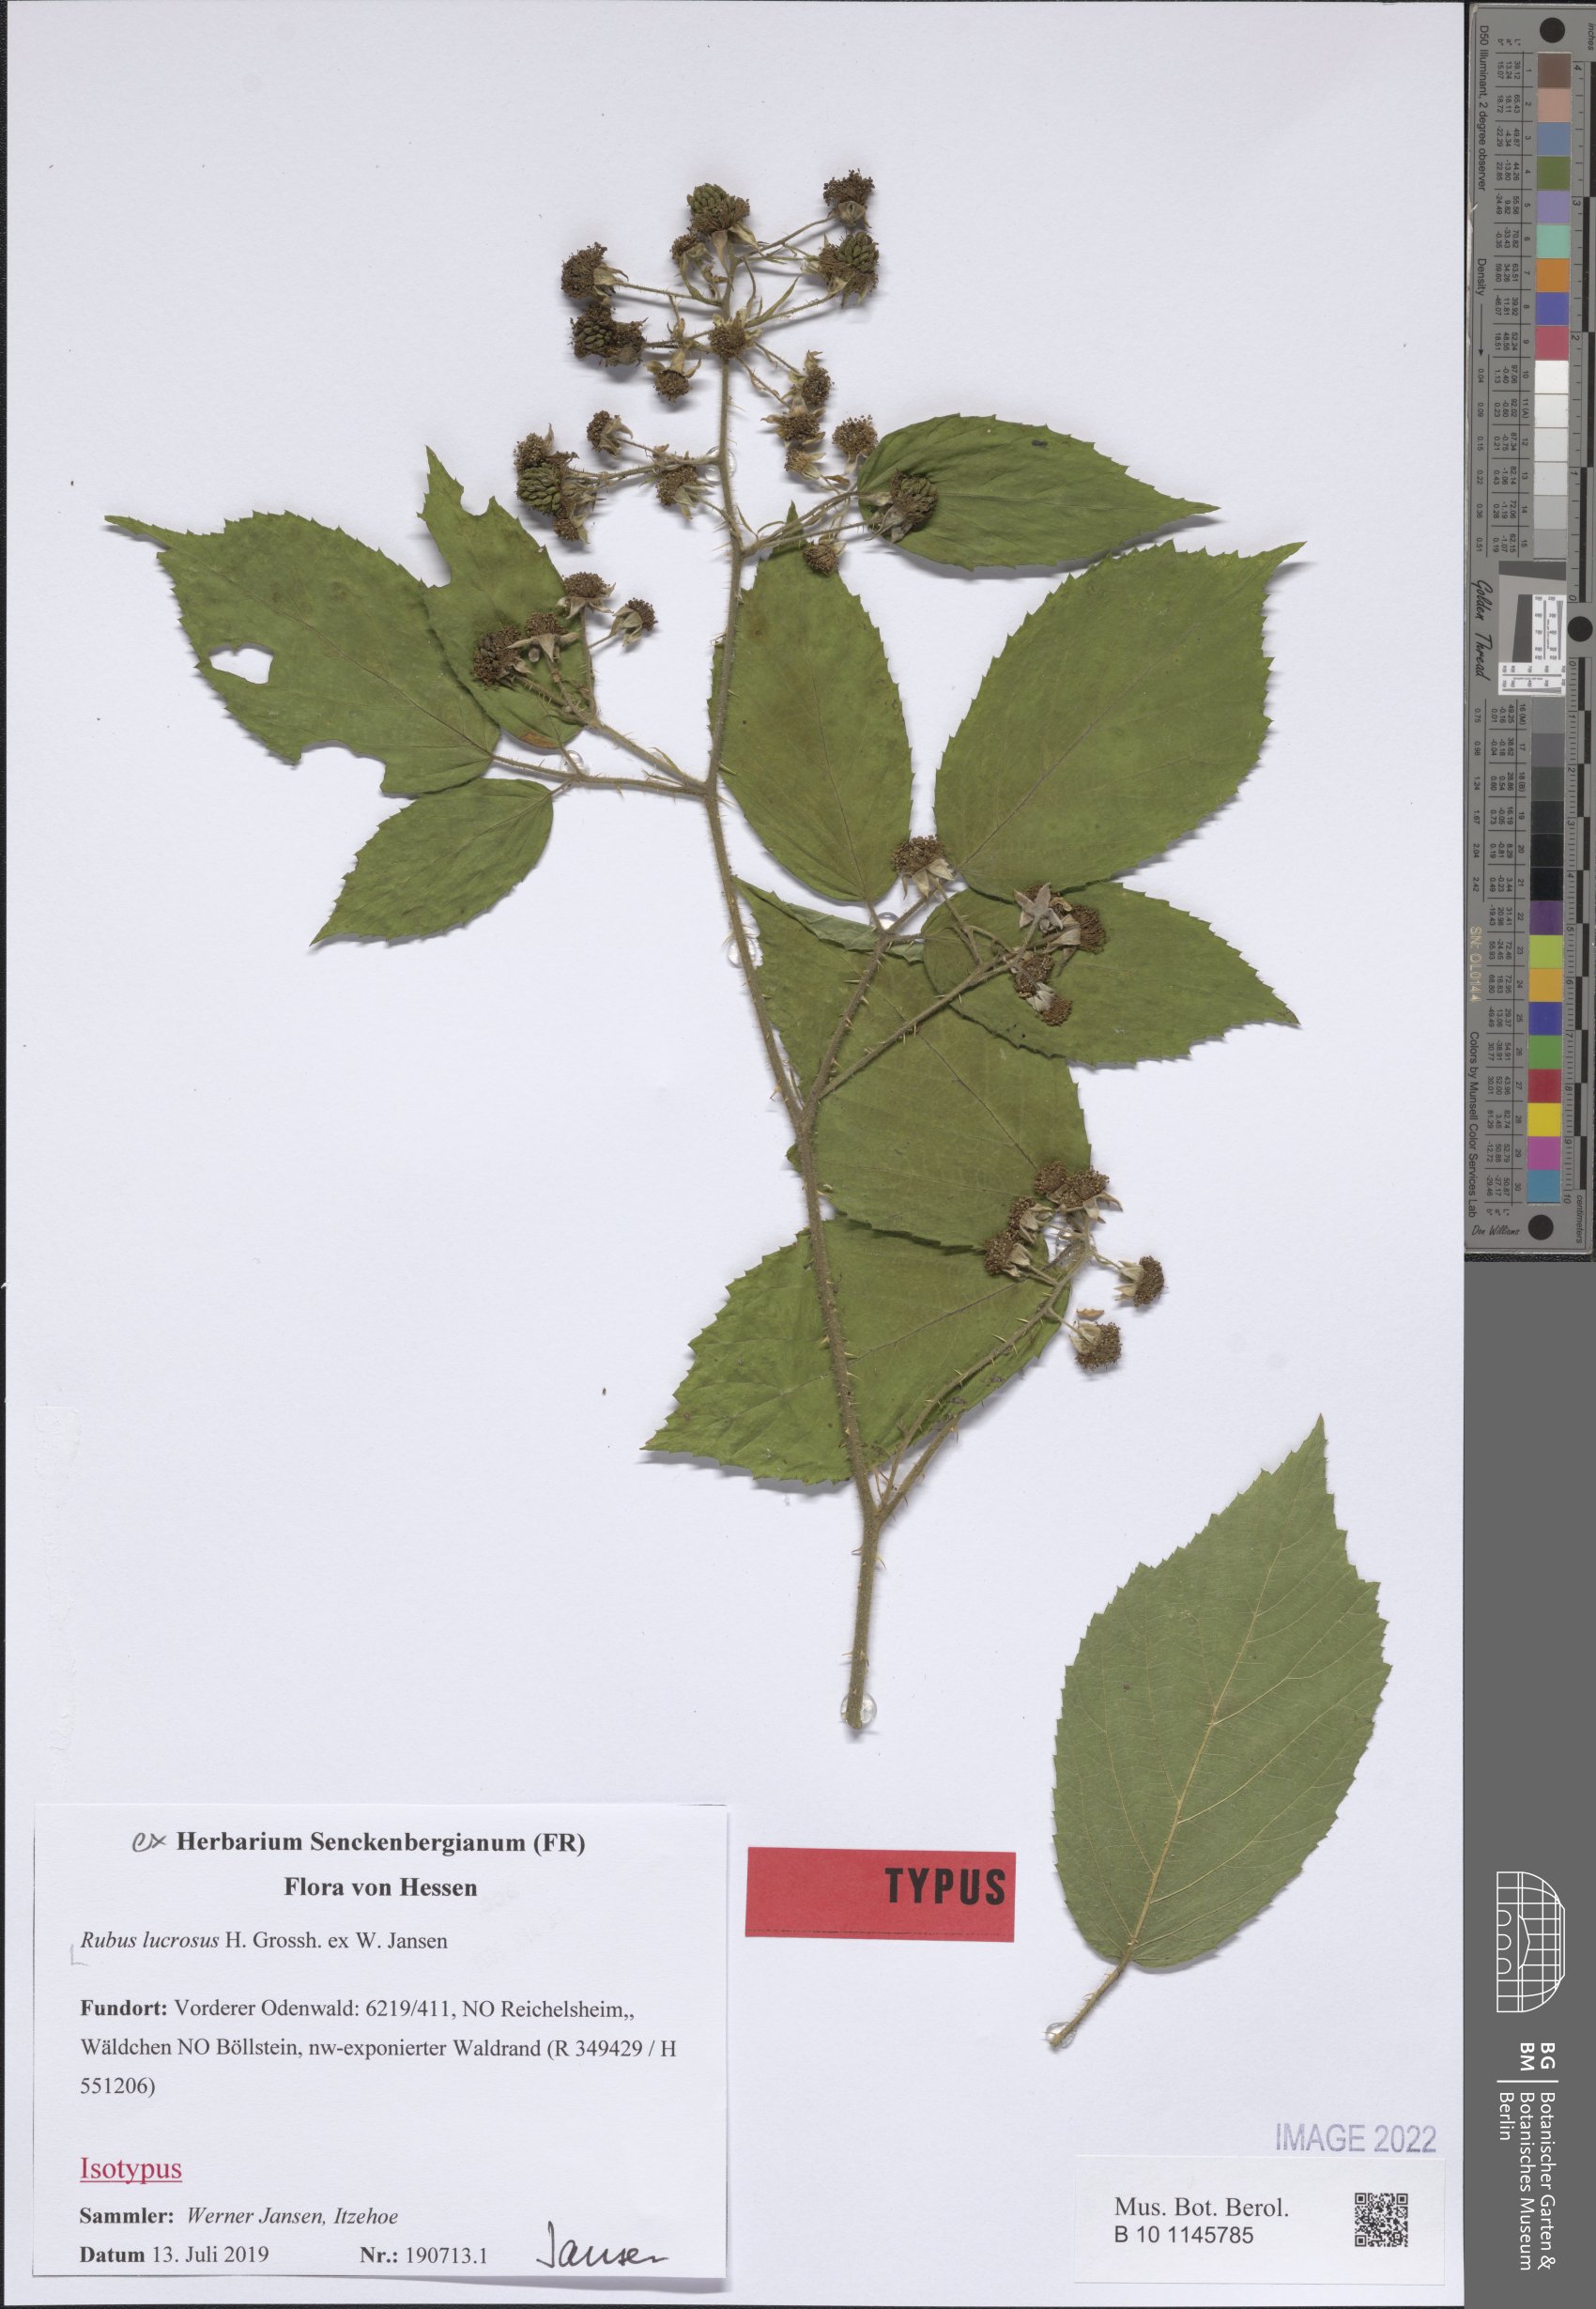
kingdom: Plantae
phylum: Tracheophyta
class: Magnoliopsida
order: Rosales
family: Rosaceae
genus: Rubus
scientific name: Rubus lucrosus
